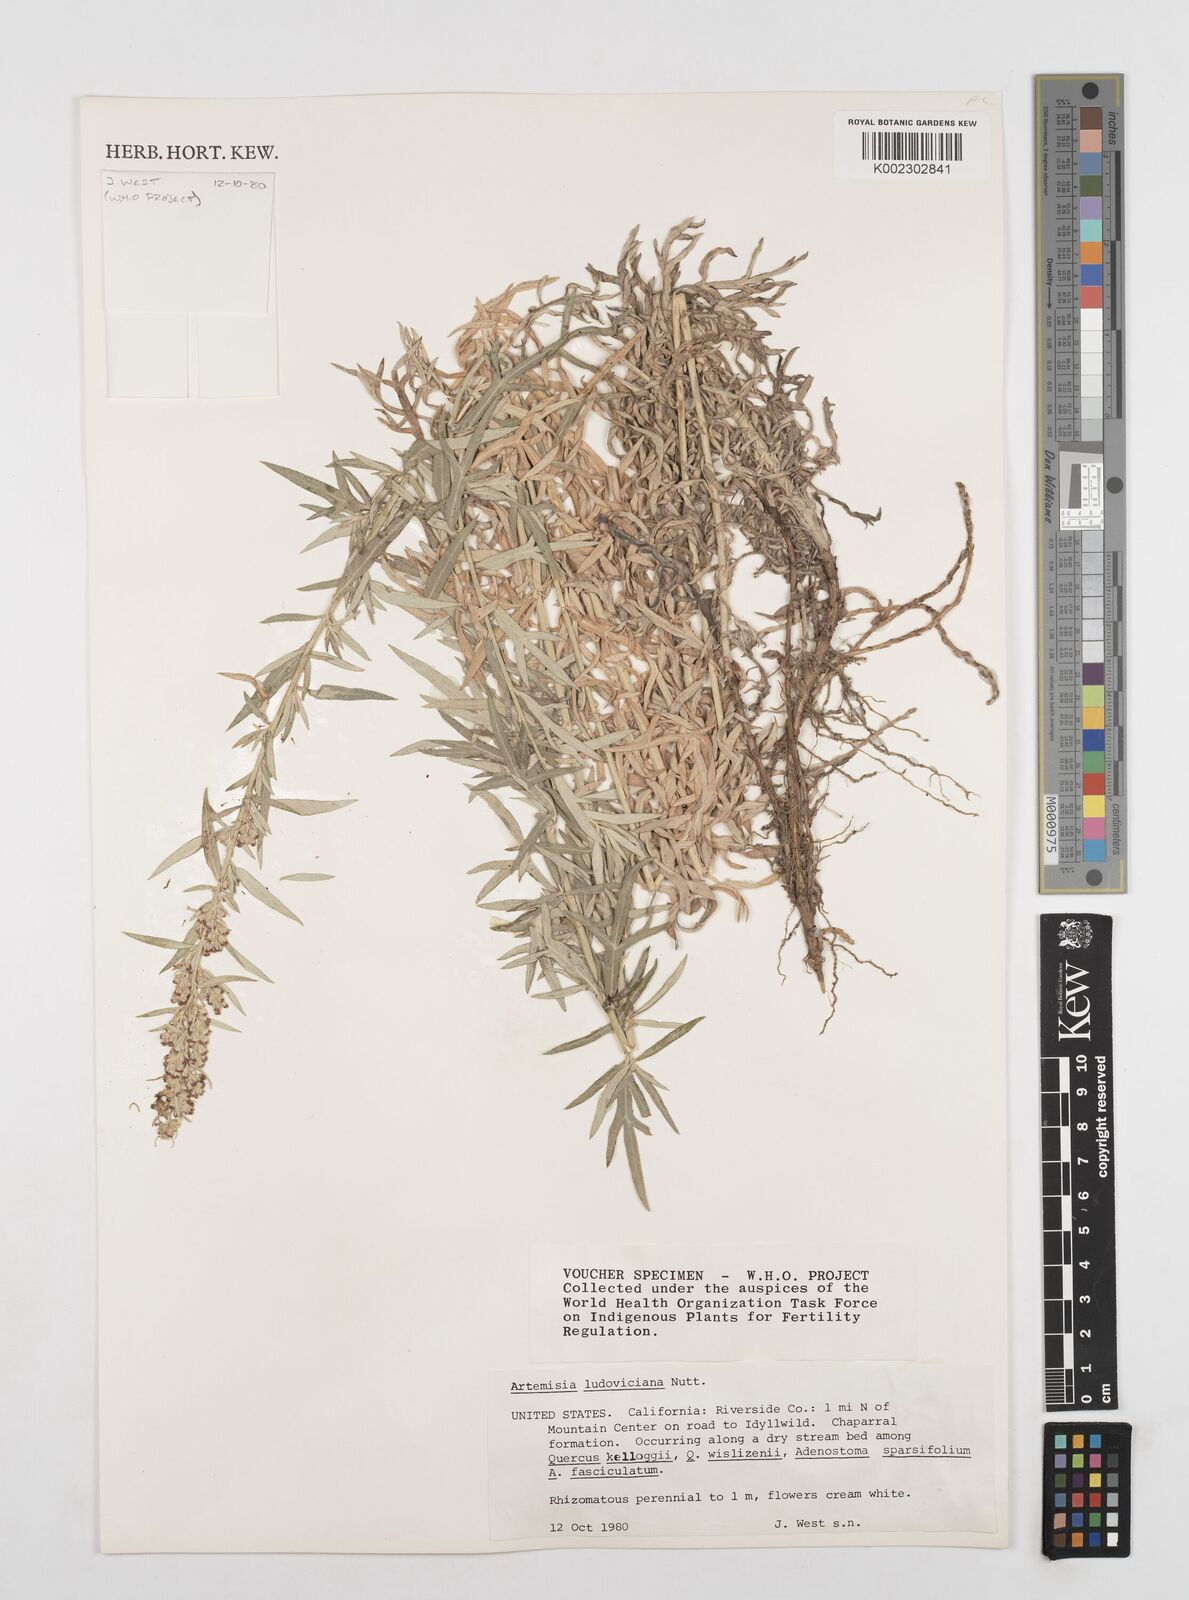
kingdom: Plantae
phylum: Tracheophyta
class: Magnoliopsida
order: Asterales
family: Asteraceae
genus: Artemisia
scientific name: Artemisia ludoviciana
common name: Western mugwort
